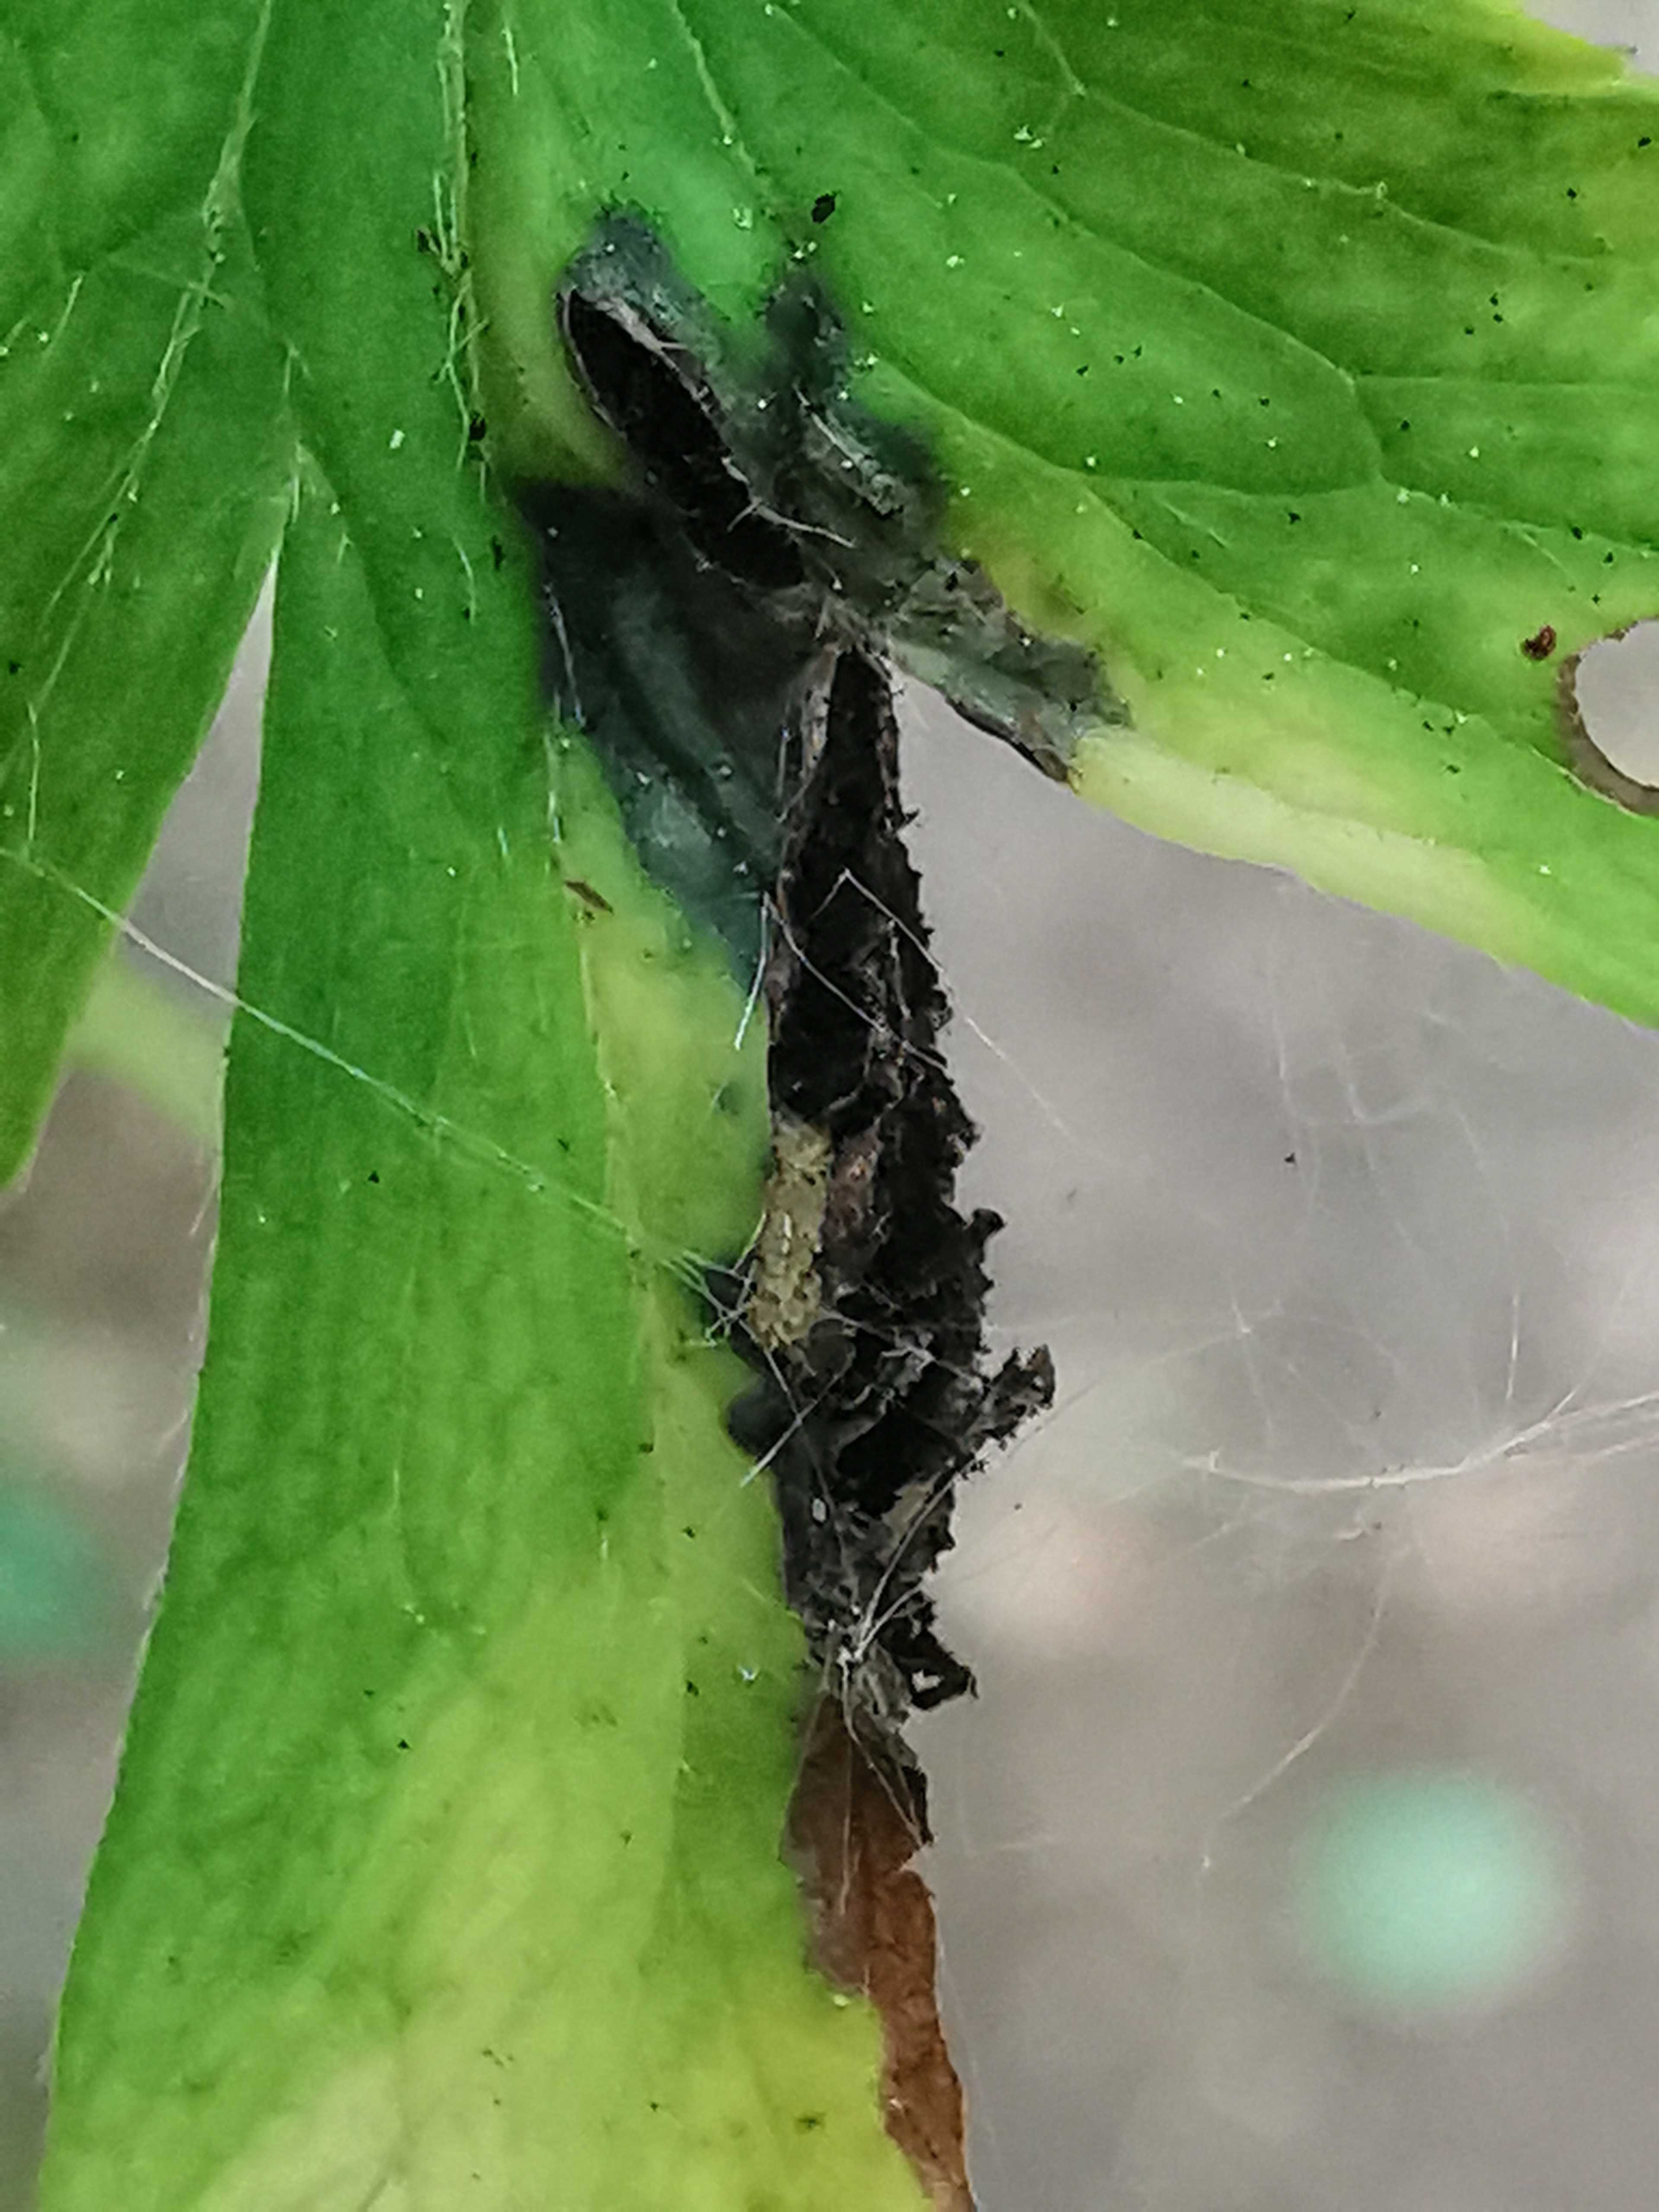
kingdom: Fungi
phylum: Basidiomycota
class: Ustilaginomycetes
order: Urocystidales
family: Urocystidaceae
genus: Urocystis
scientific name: Urocystis anemones
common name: anemone-brand
